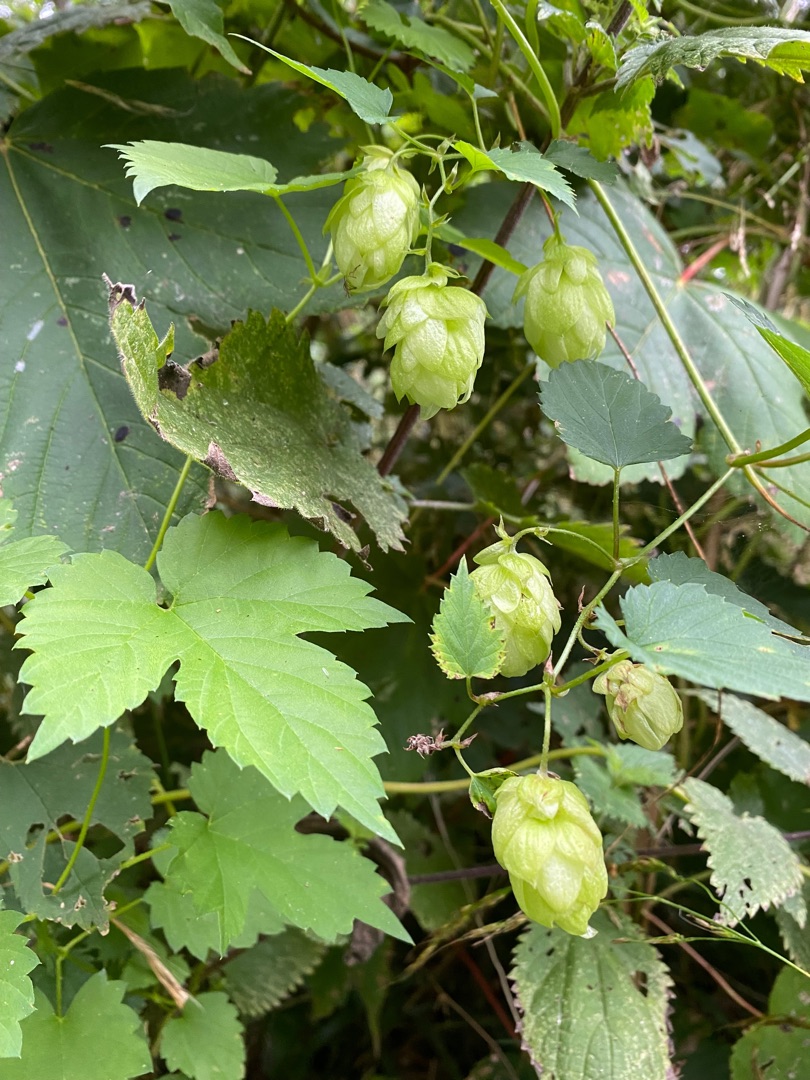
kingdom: Plantae
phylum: Tracheophyta
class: Magnoliopsida
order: Rosales
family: Cannabaceae
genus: Humulus
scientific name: Humulus lupulus
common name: Humle
